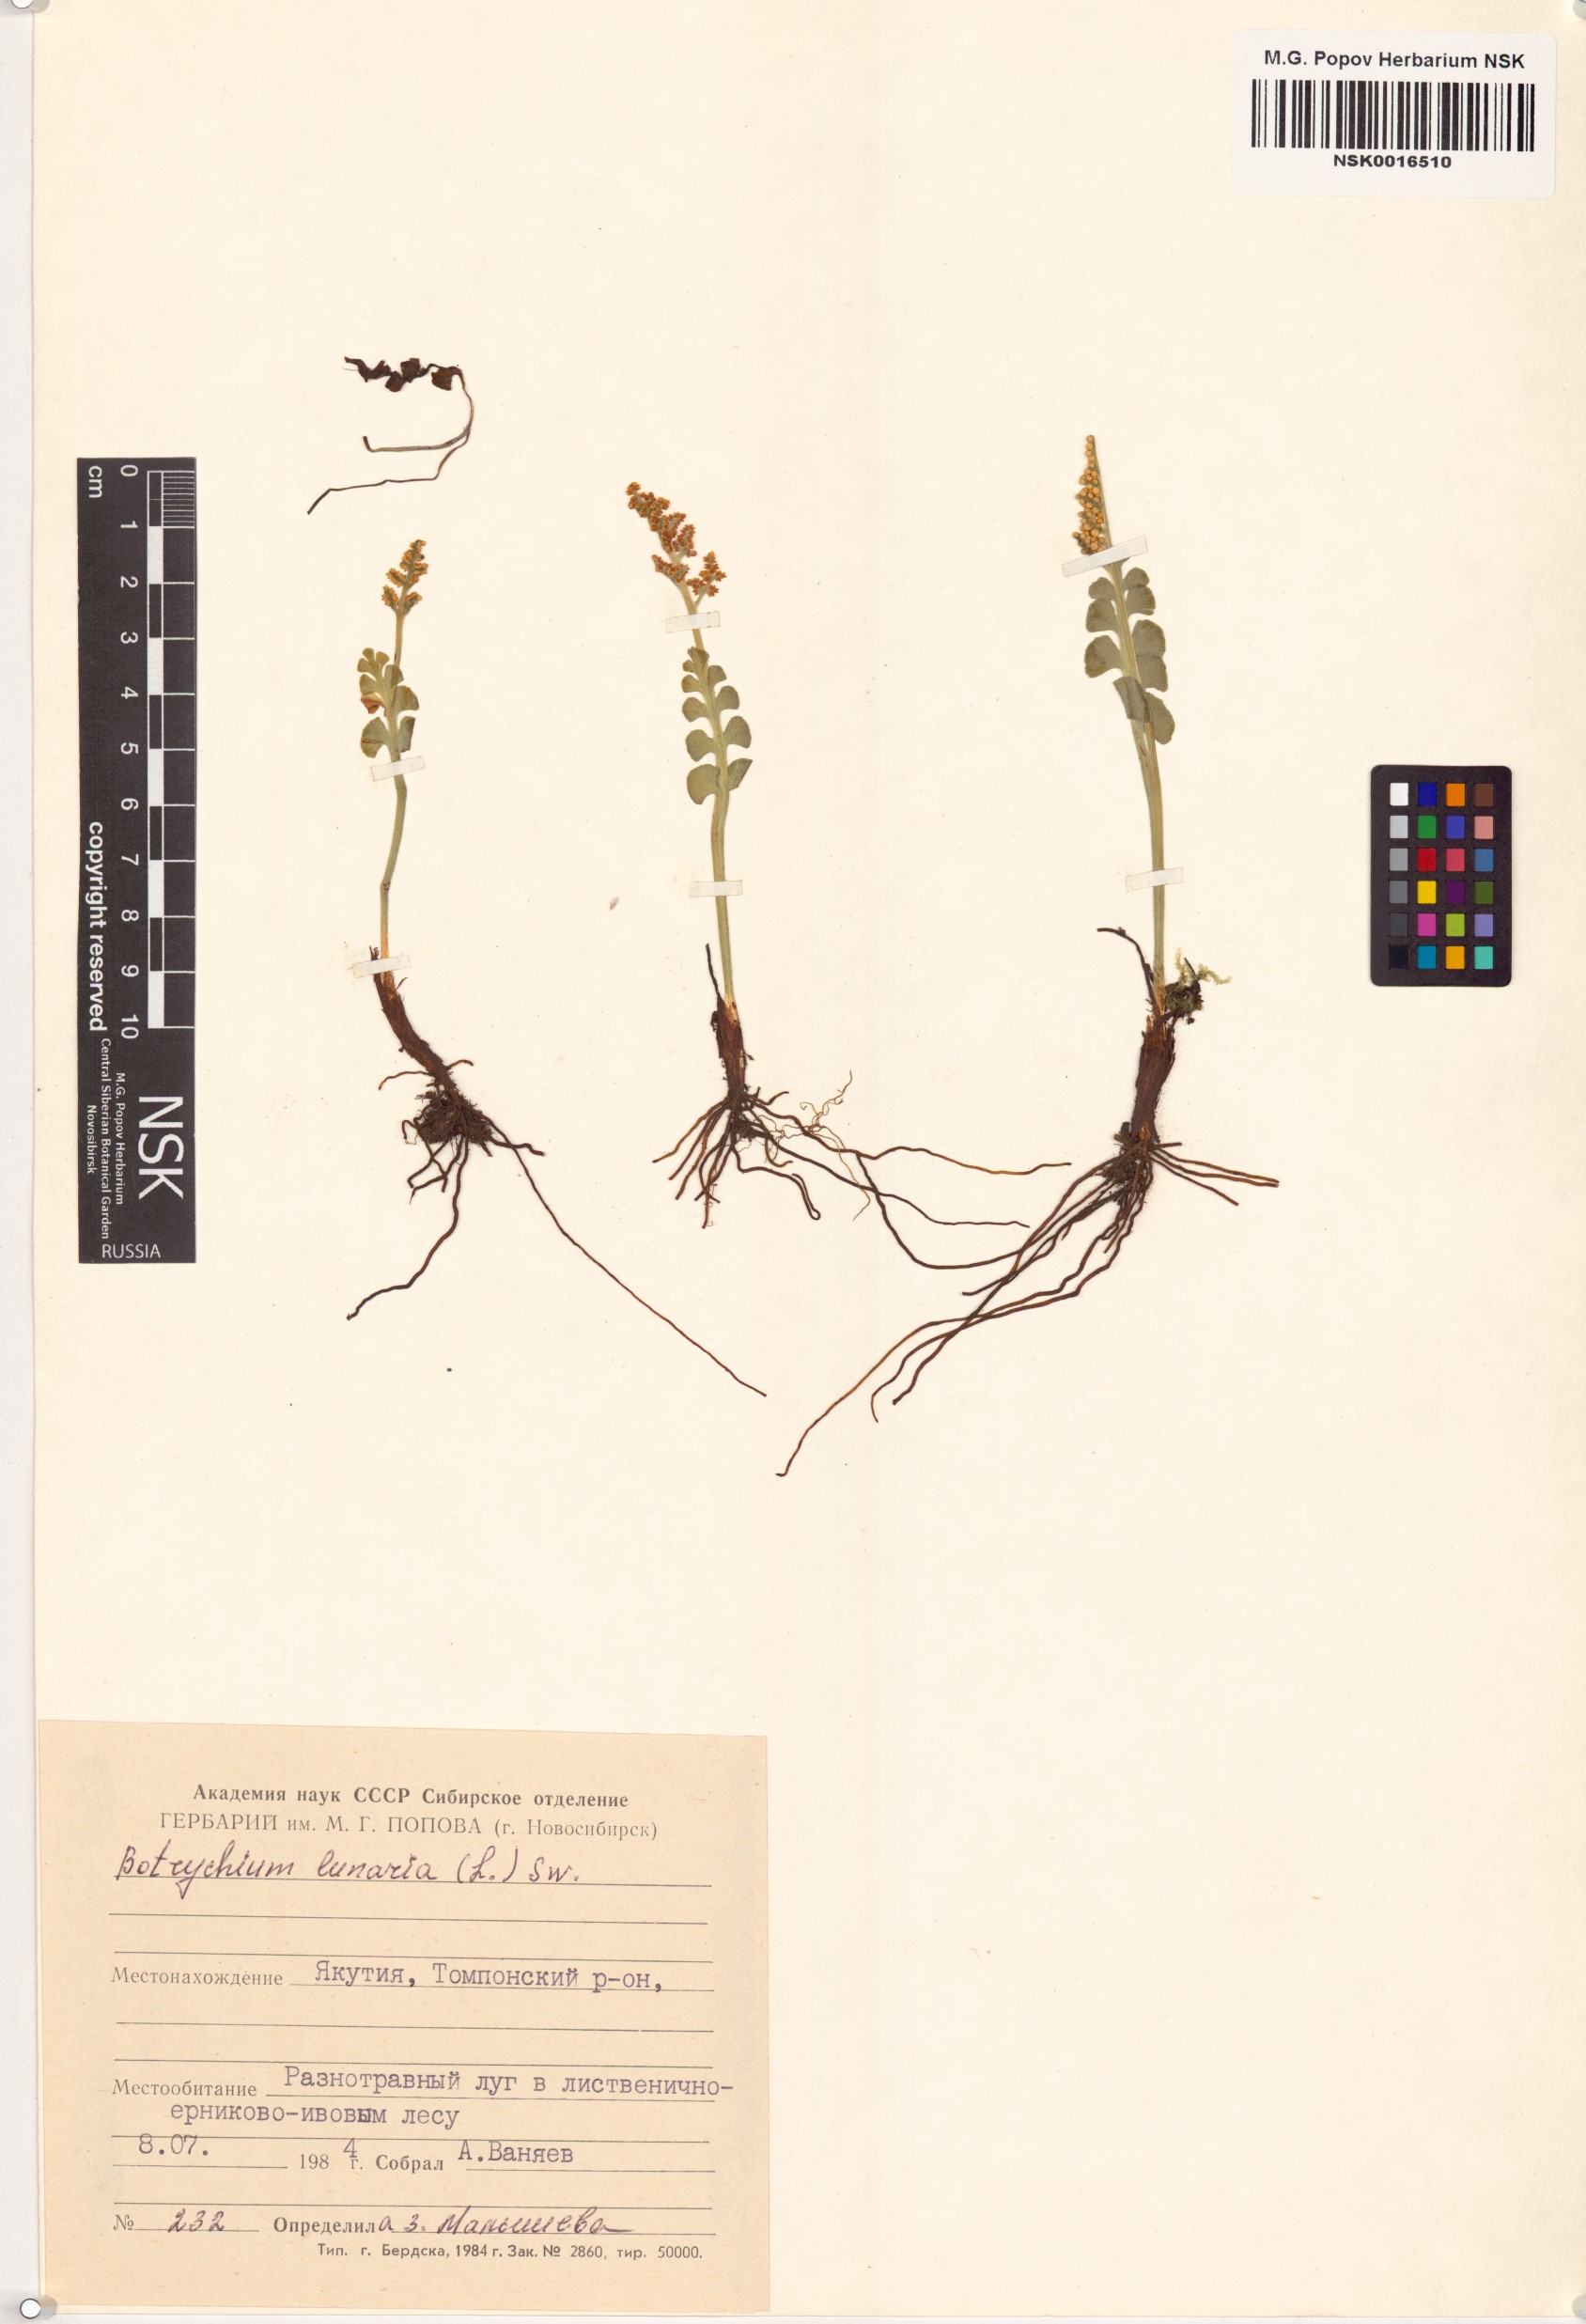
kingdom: Plantae
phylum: Tracheophyta
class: Polypodiopsida
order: Ophioglossales
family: Ophioglossaceae
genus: Botrychium
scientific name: Botrychium lunaria
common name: Moonwort
